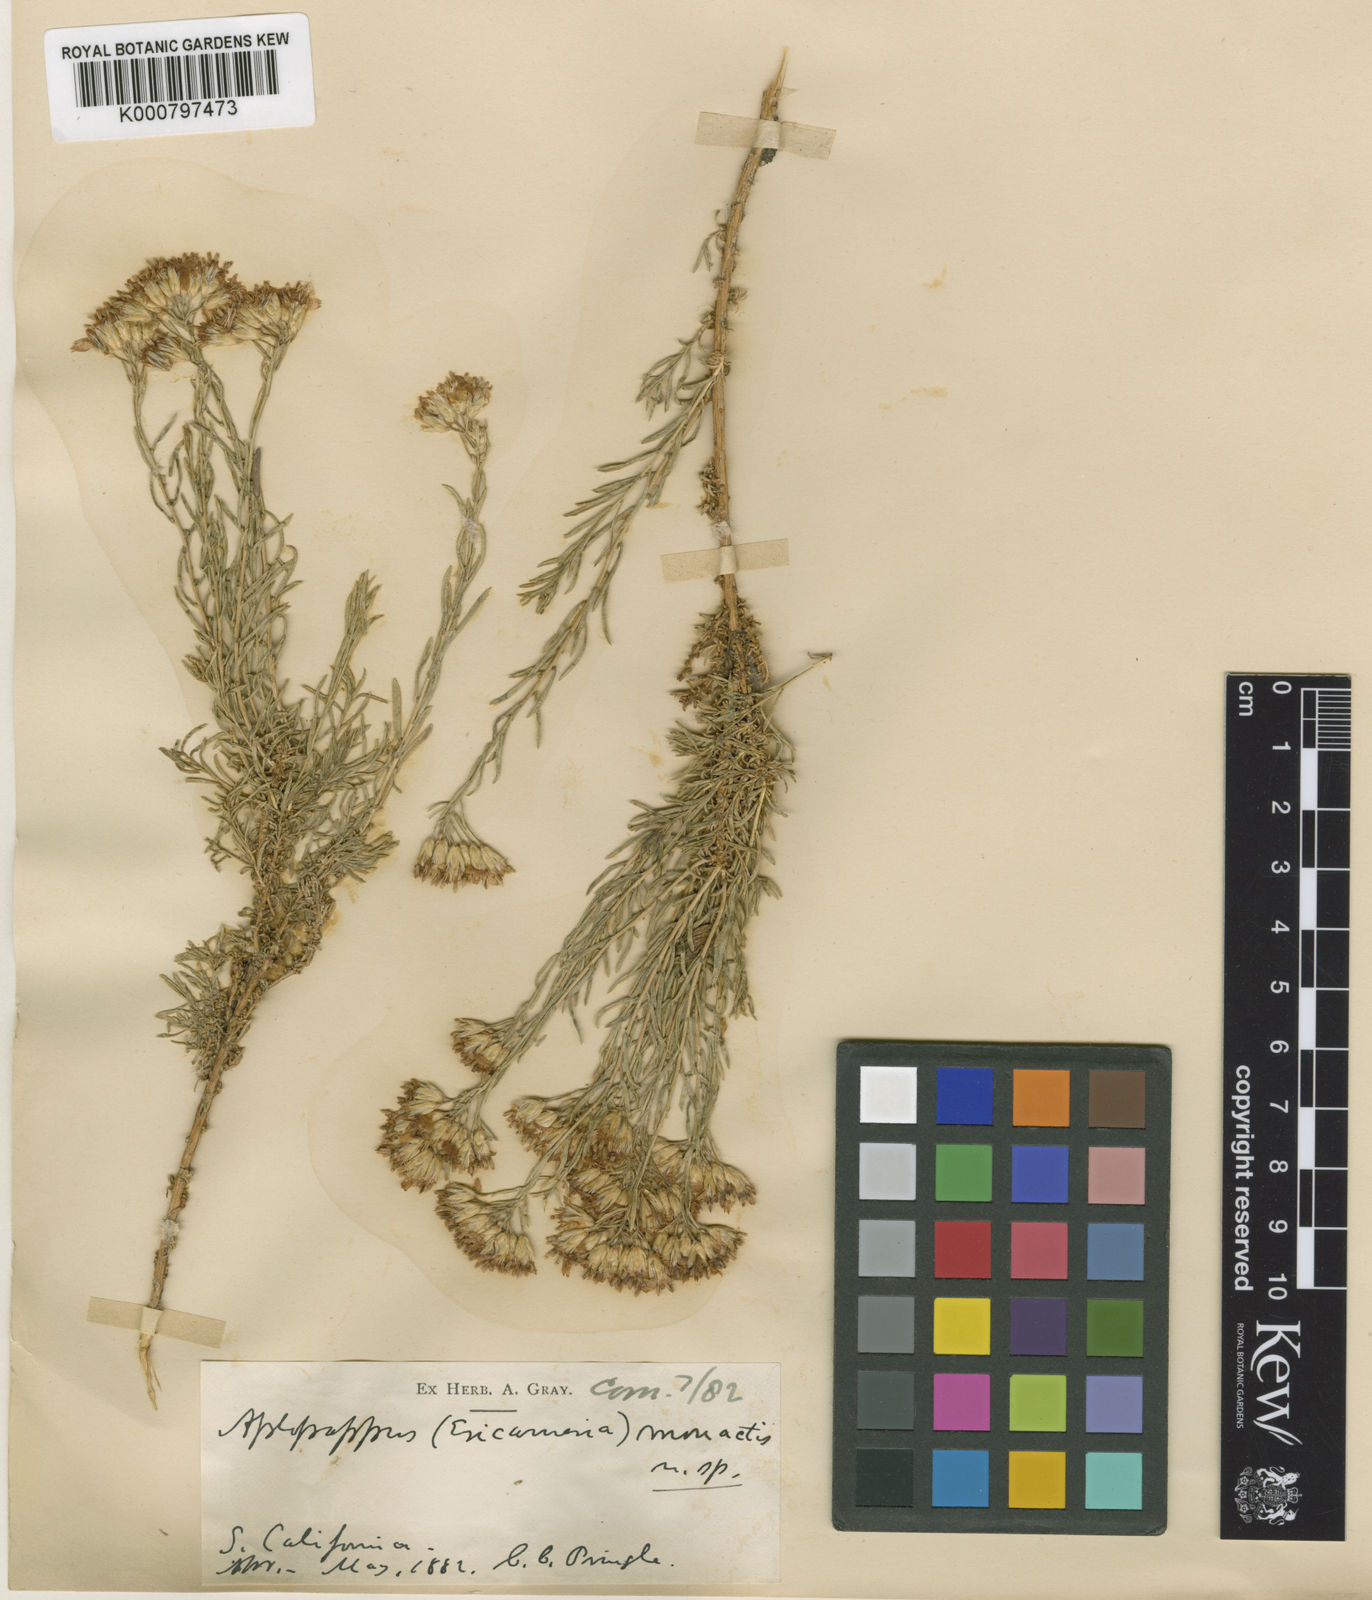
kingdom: Plantae
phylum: Tracheophyta
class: Magnoliopsida
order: Asterales
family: Asteraceae
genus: Ericameria
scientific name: Ericameria cooperi
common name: Cooper's goldenbush
